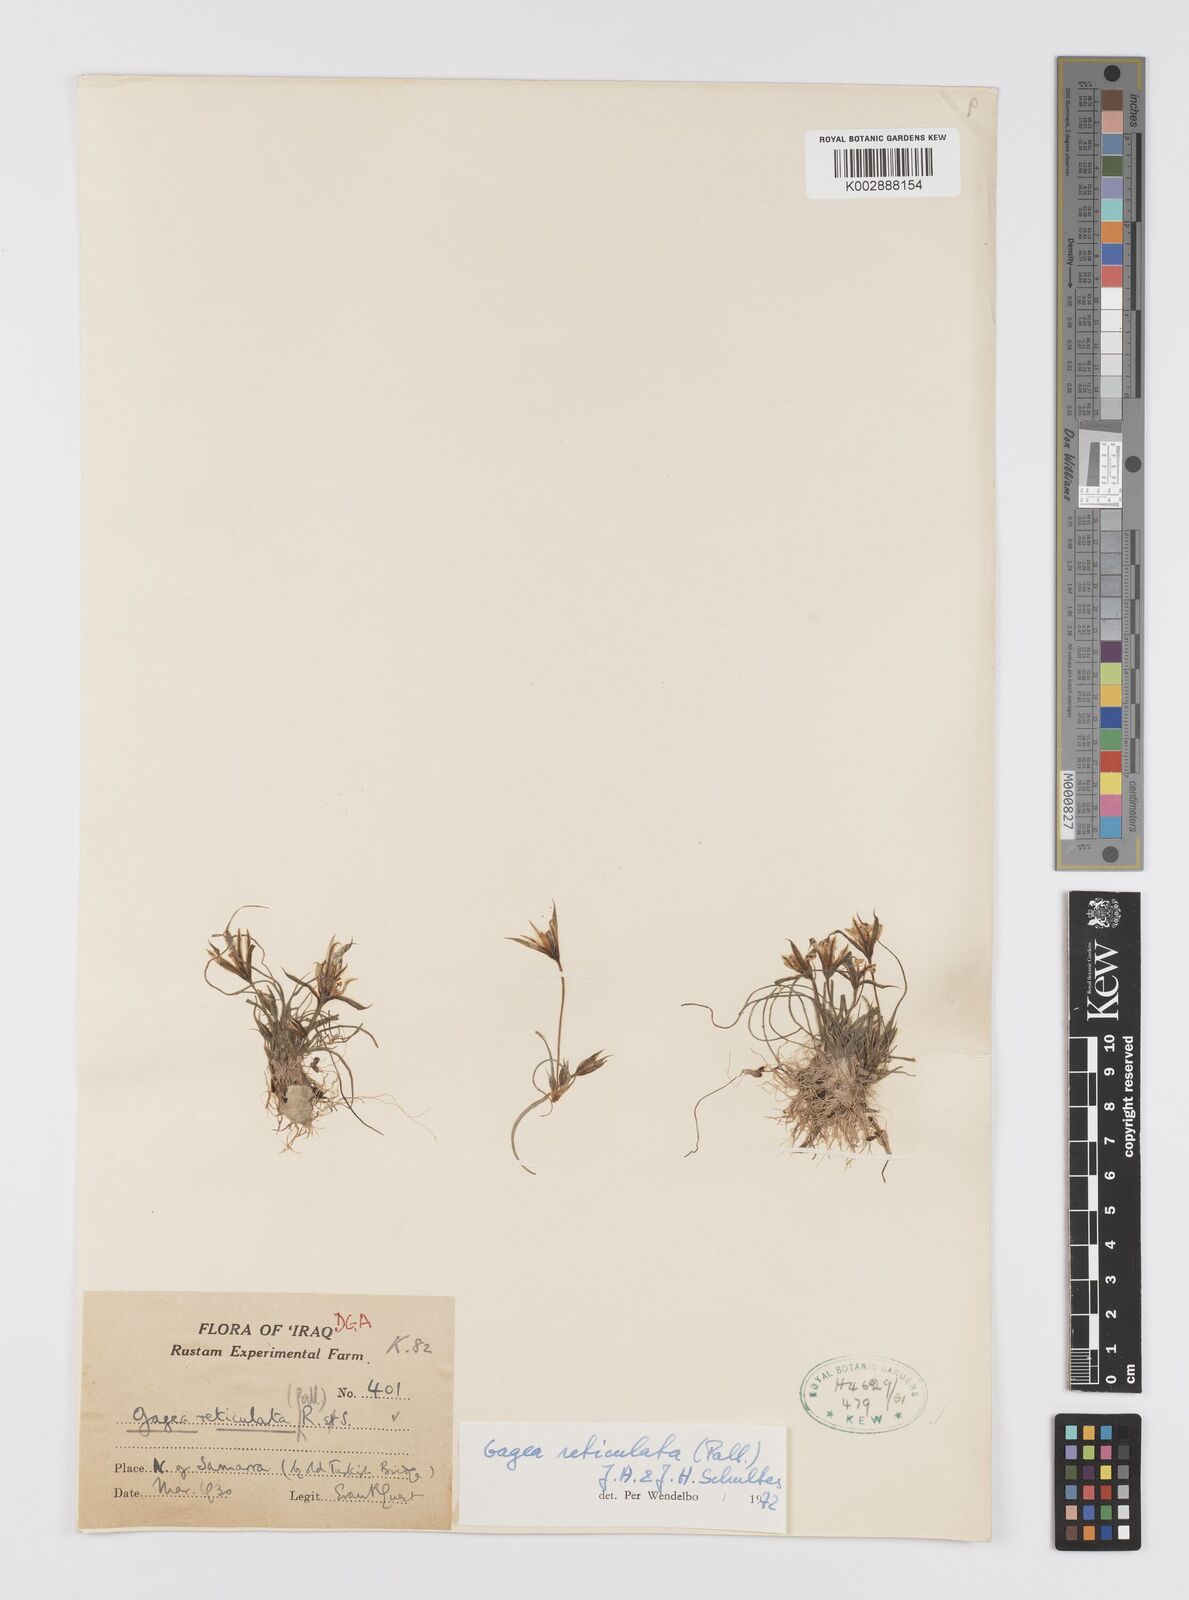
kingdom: Plantae
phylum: Tracheophyta
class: Liliopsida
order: Liliales
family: Liliaceae
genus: Gagea
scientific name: Gagea reticulata
